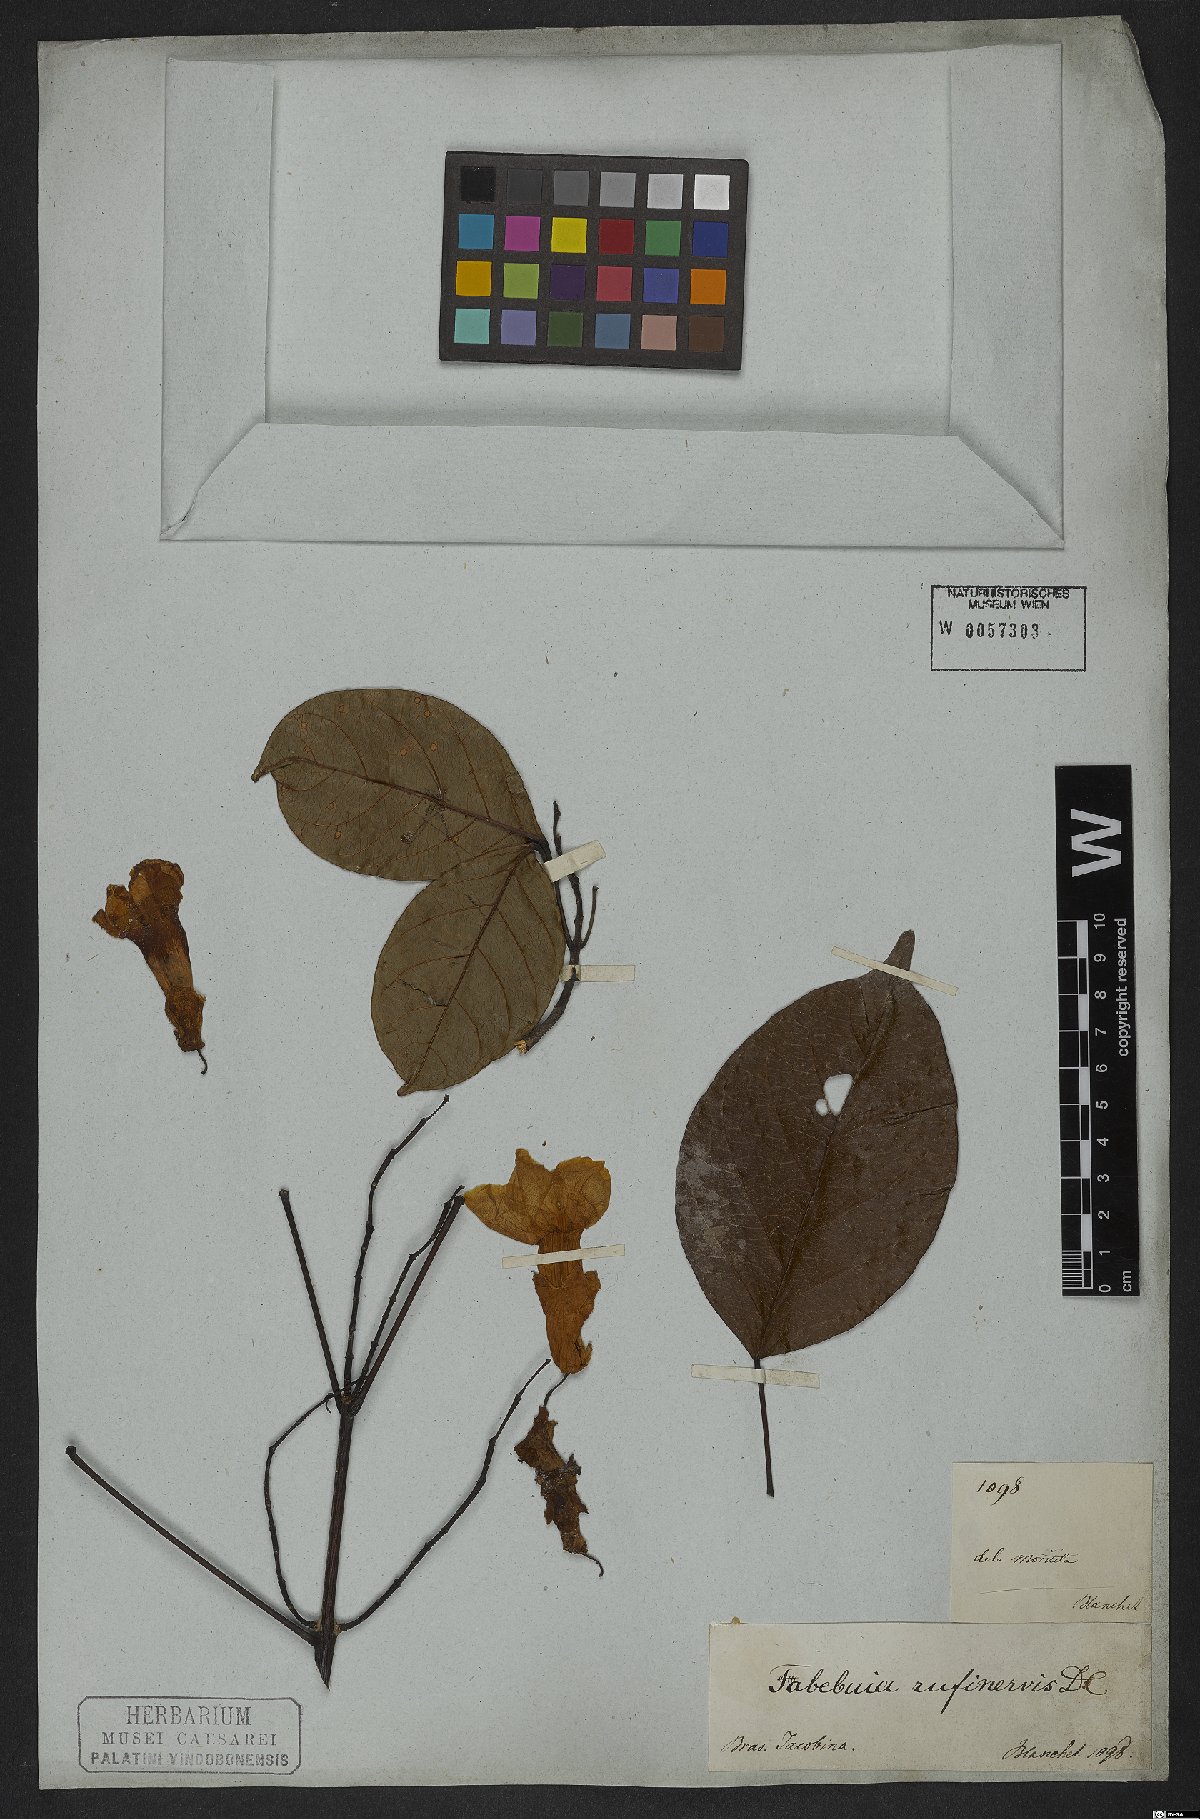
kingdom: Plantae
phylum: Tracheophyta
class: Magnoliopsida
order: Lamiales
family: Bignoniaceae
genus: Callichlamys
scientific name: Callichlamys latifolia
